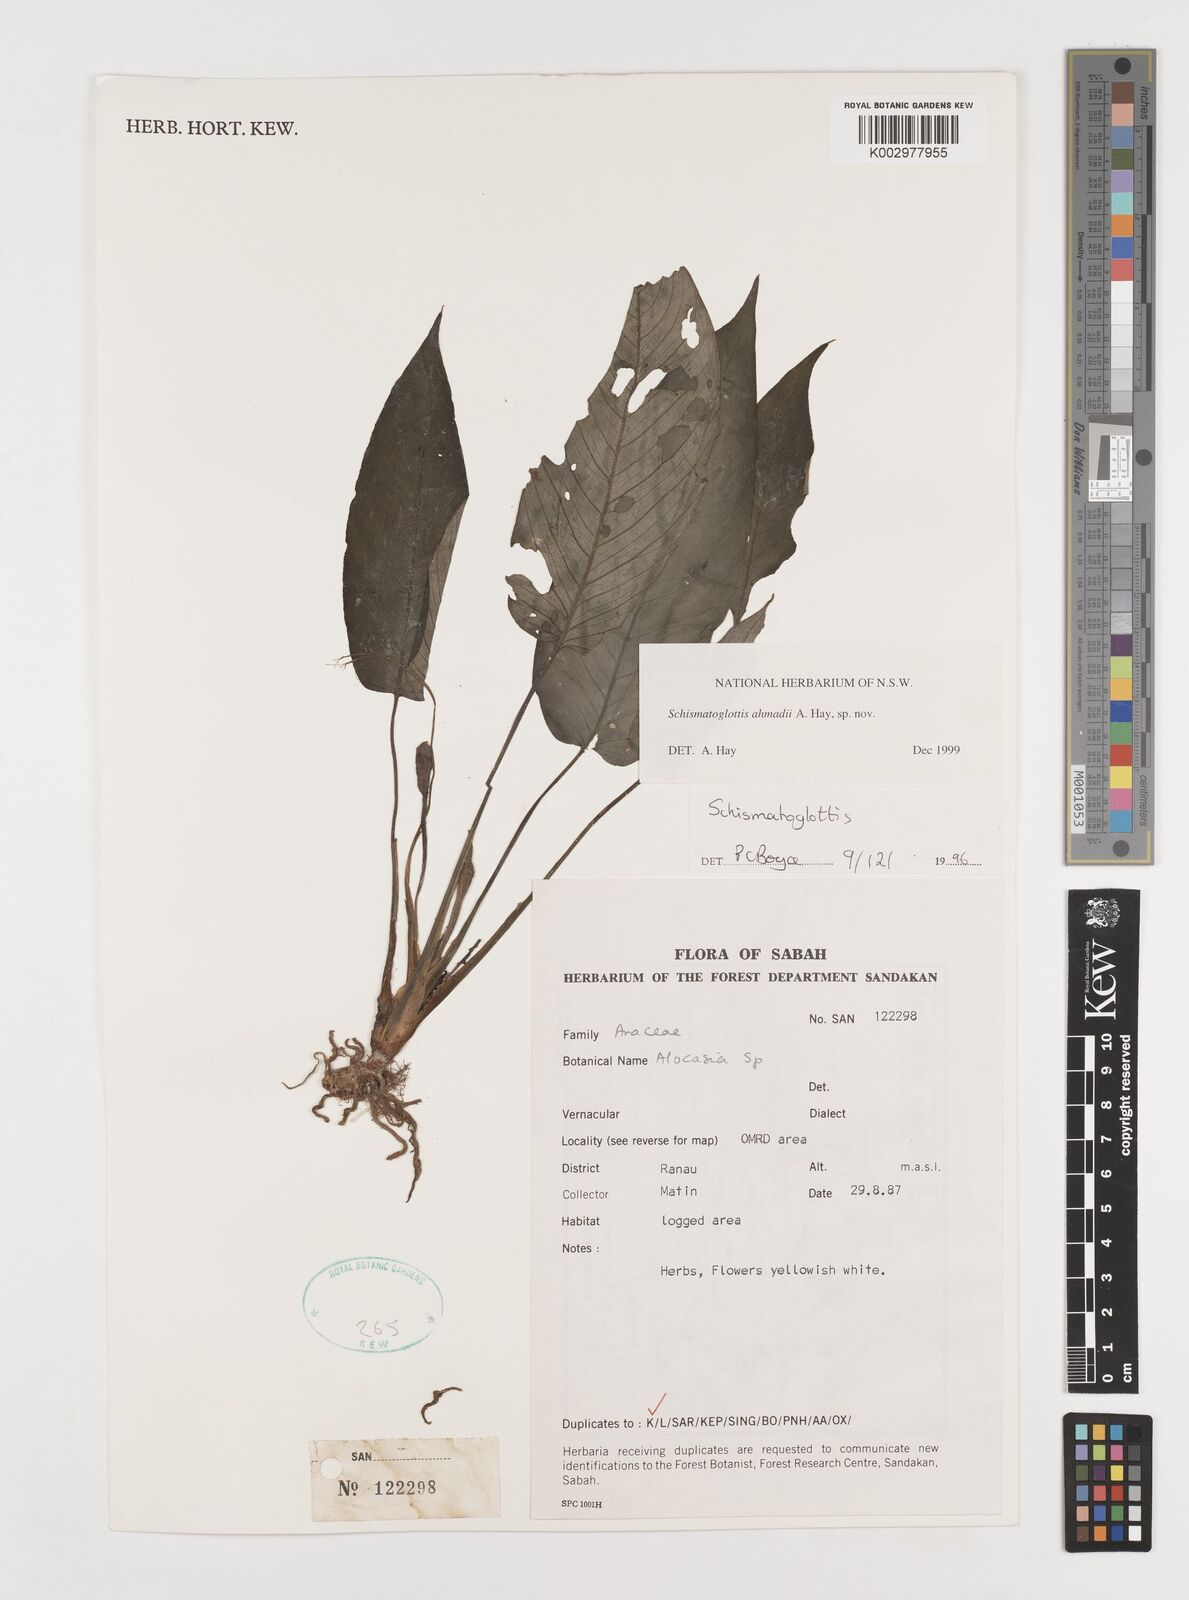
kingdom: Plantae
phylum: Tracheophyta
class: Liliopsida
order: Alismatales
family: Araceae
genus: Schismatoglottis
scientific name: Schismatoglottis ahmadii
